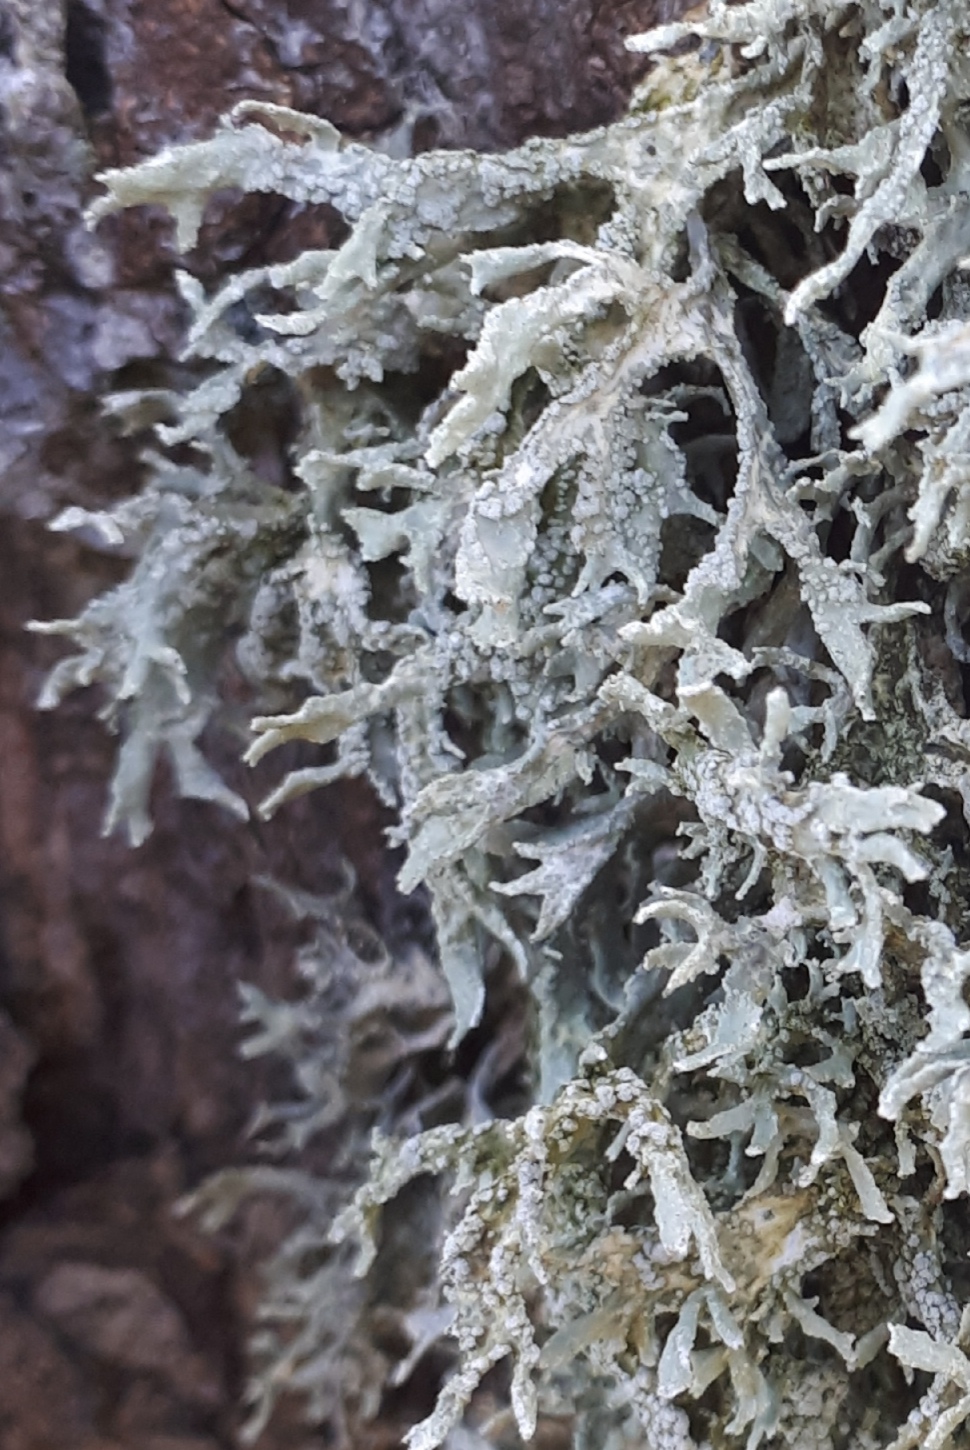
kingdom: Fungi
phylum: Ascomycota
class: Lecanoromycetes
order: Lecanorales
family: Parmeliaceae
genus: Evernia
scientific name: Evernia prunastri
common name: almindelig slåenlav
